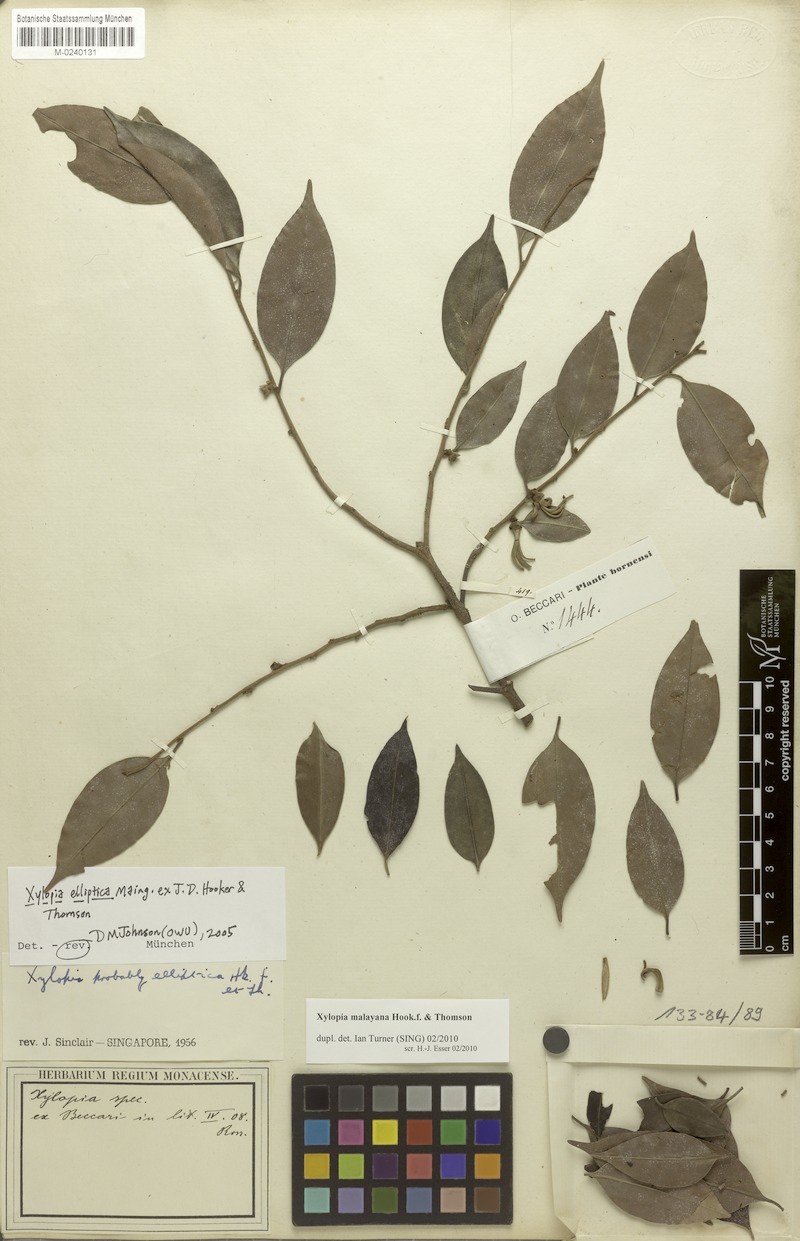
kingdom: Plantae
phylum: Tracheophyta
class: Magnoliopsida
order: Magnoliales
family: Annonaceae
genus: Xylopia
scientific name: Xylopia malayana
